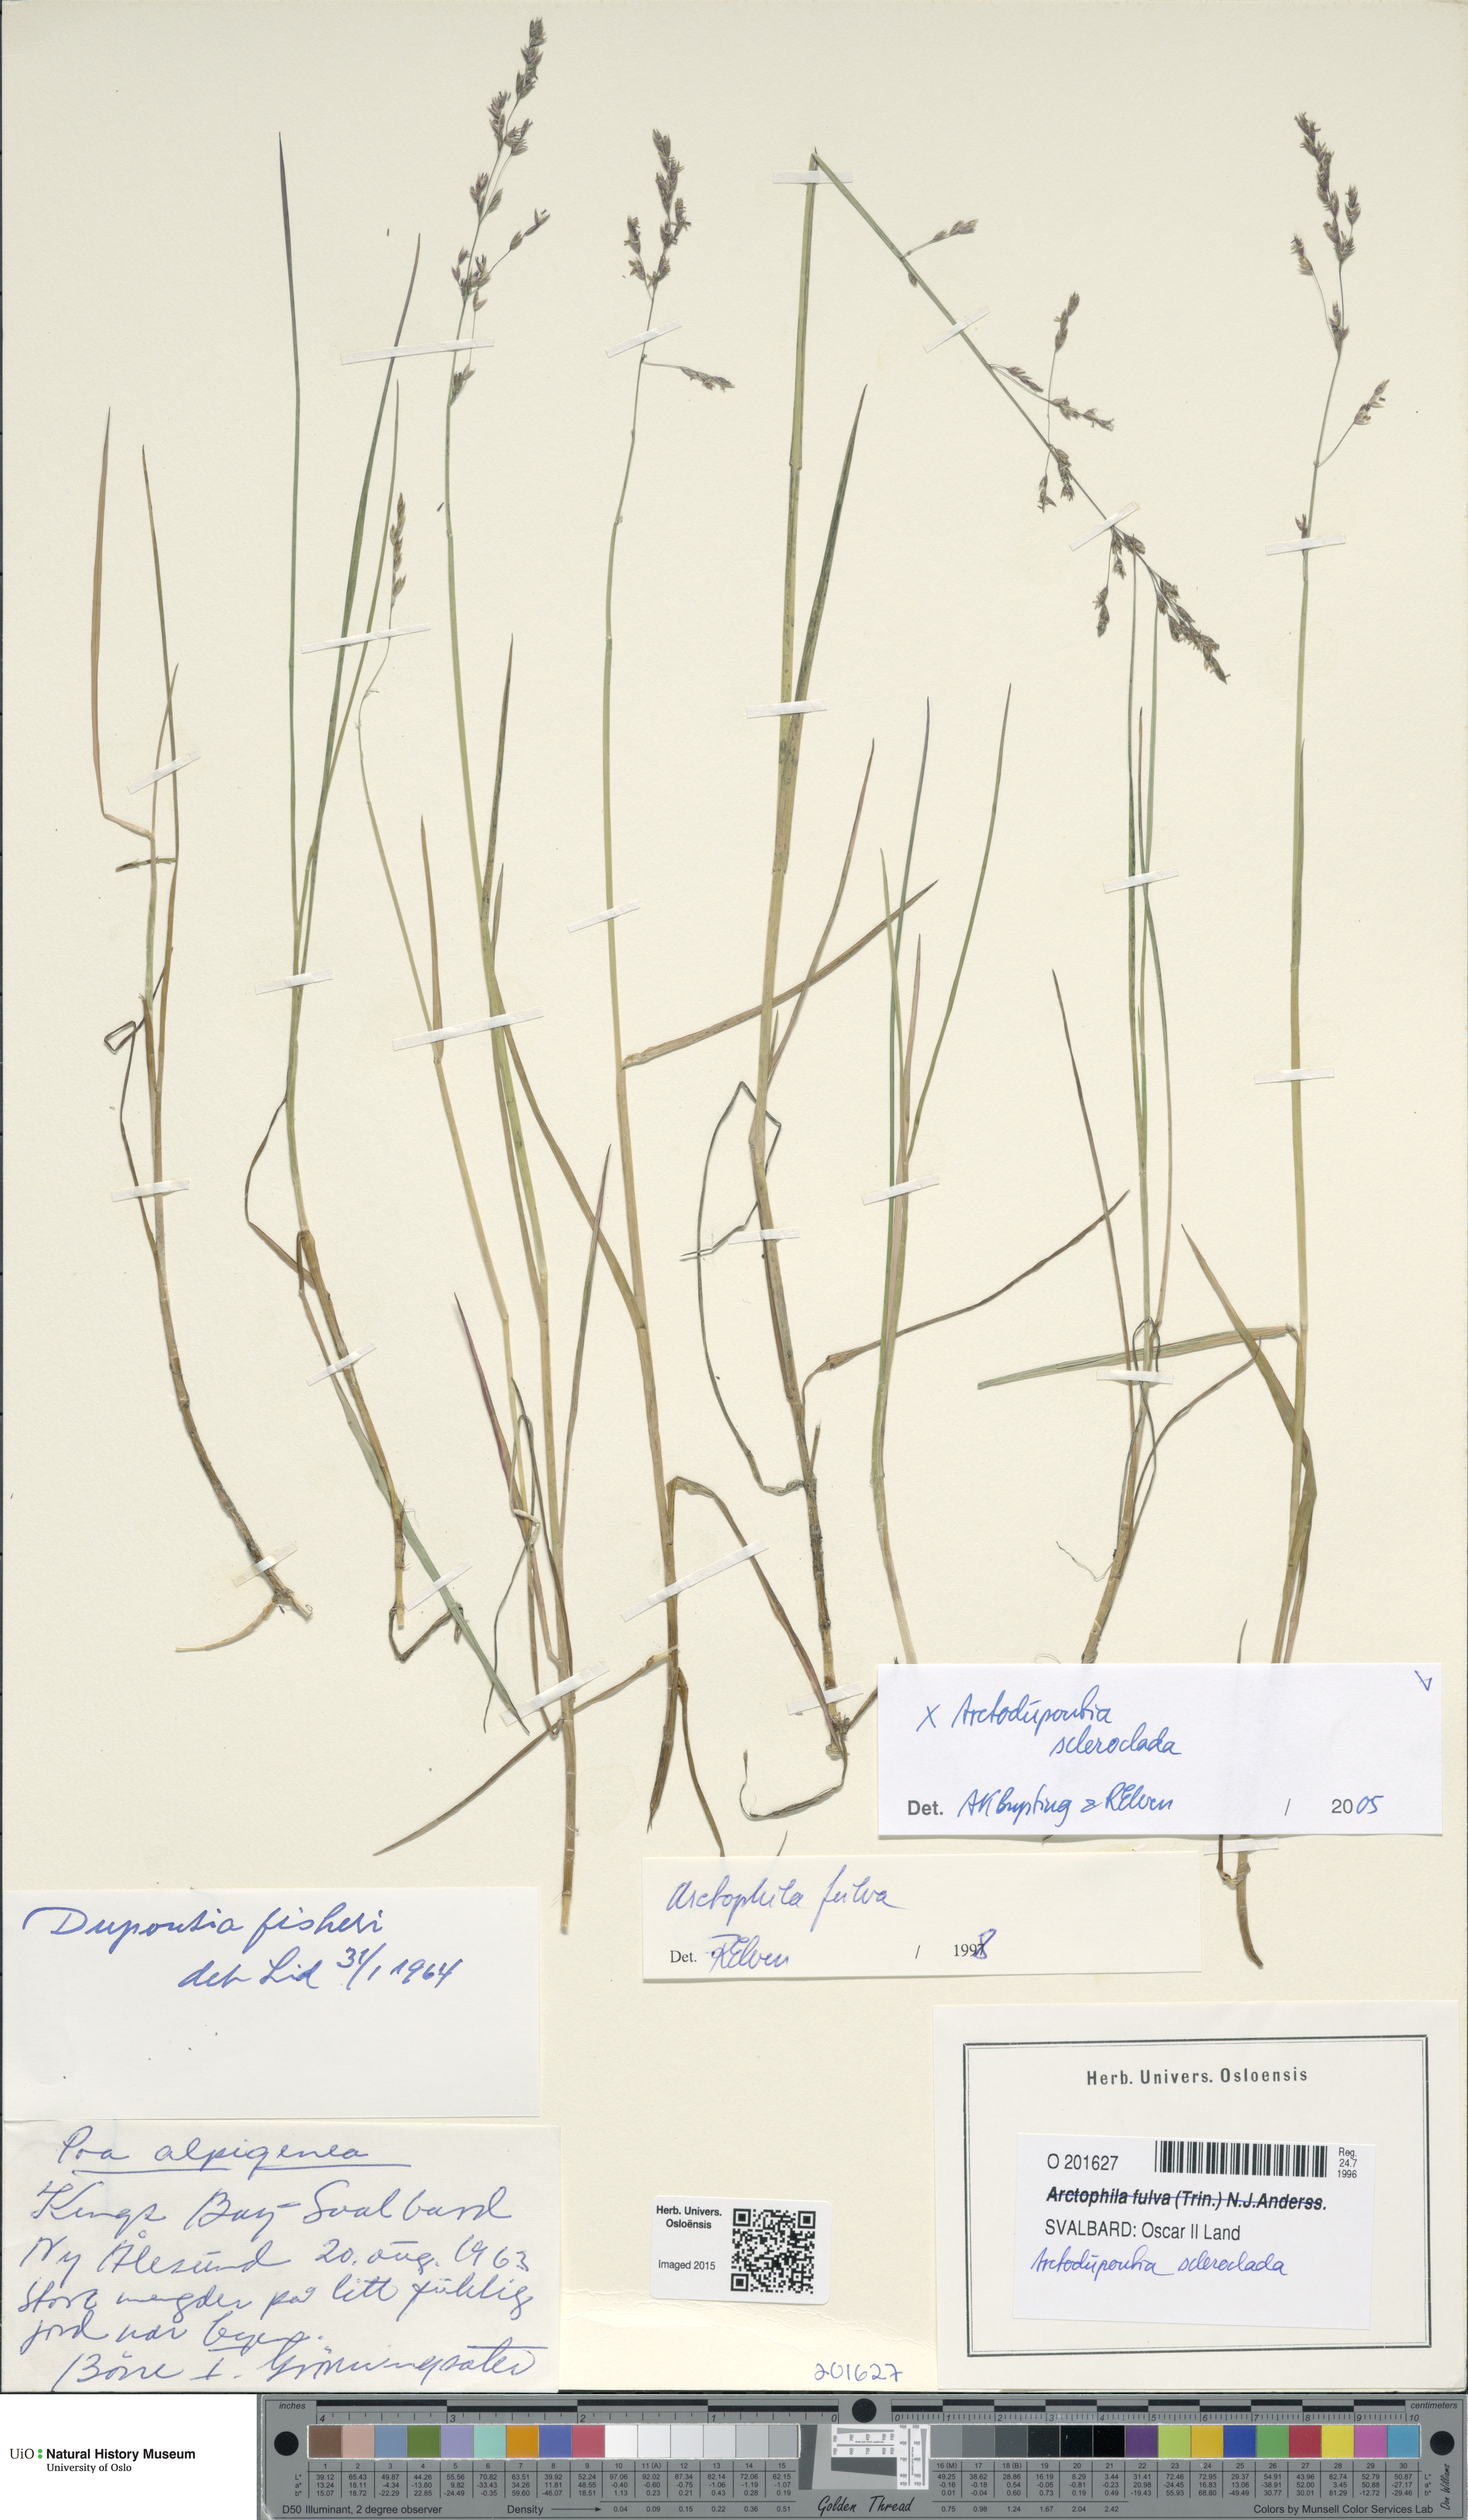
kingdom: Plantae
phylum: Tracheophyta
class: Liliopsida
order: Poales
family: Poaceae
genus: Arctodupontia
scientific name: Arctodupontia scleroclada
